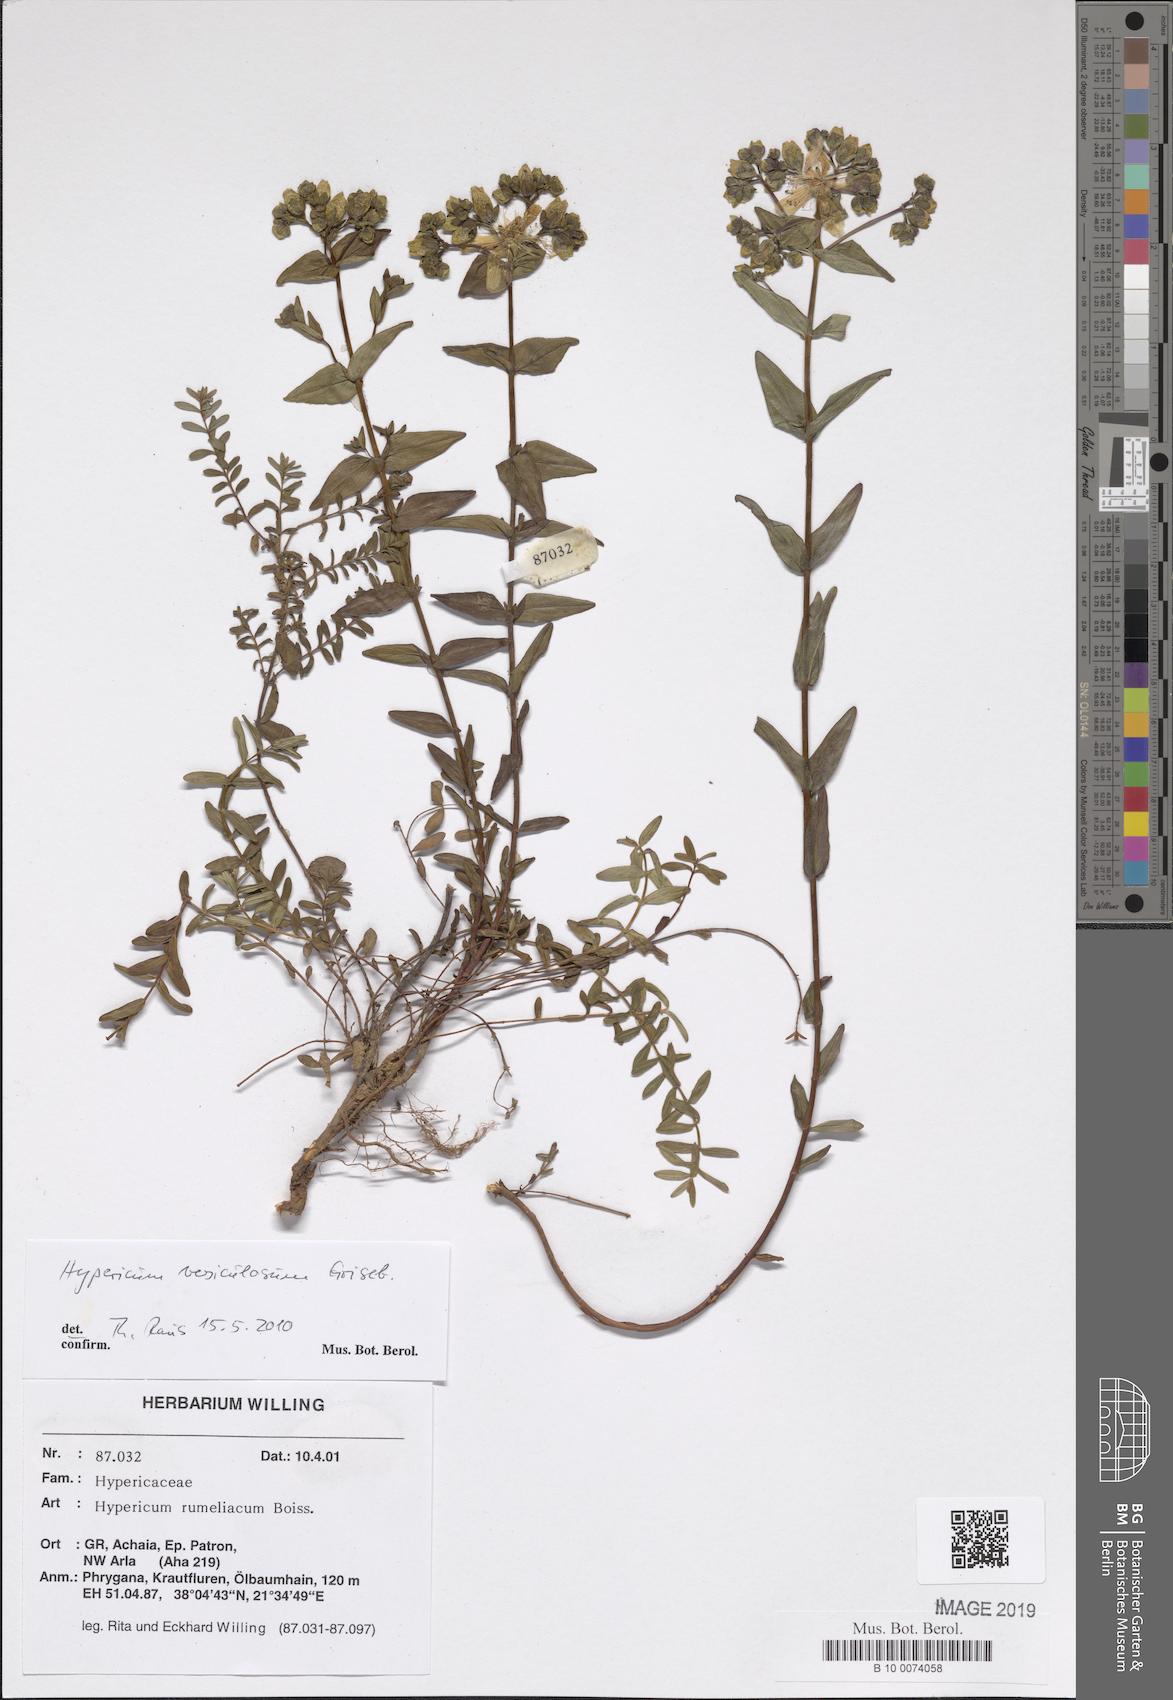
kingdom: Plantae
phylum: Tracheophyta
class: Magnoliopsida
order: Malpighiales
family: Hypericaceae
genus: Hypericum
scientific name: Hypericum perfoliatum
